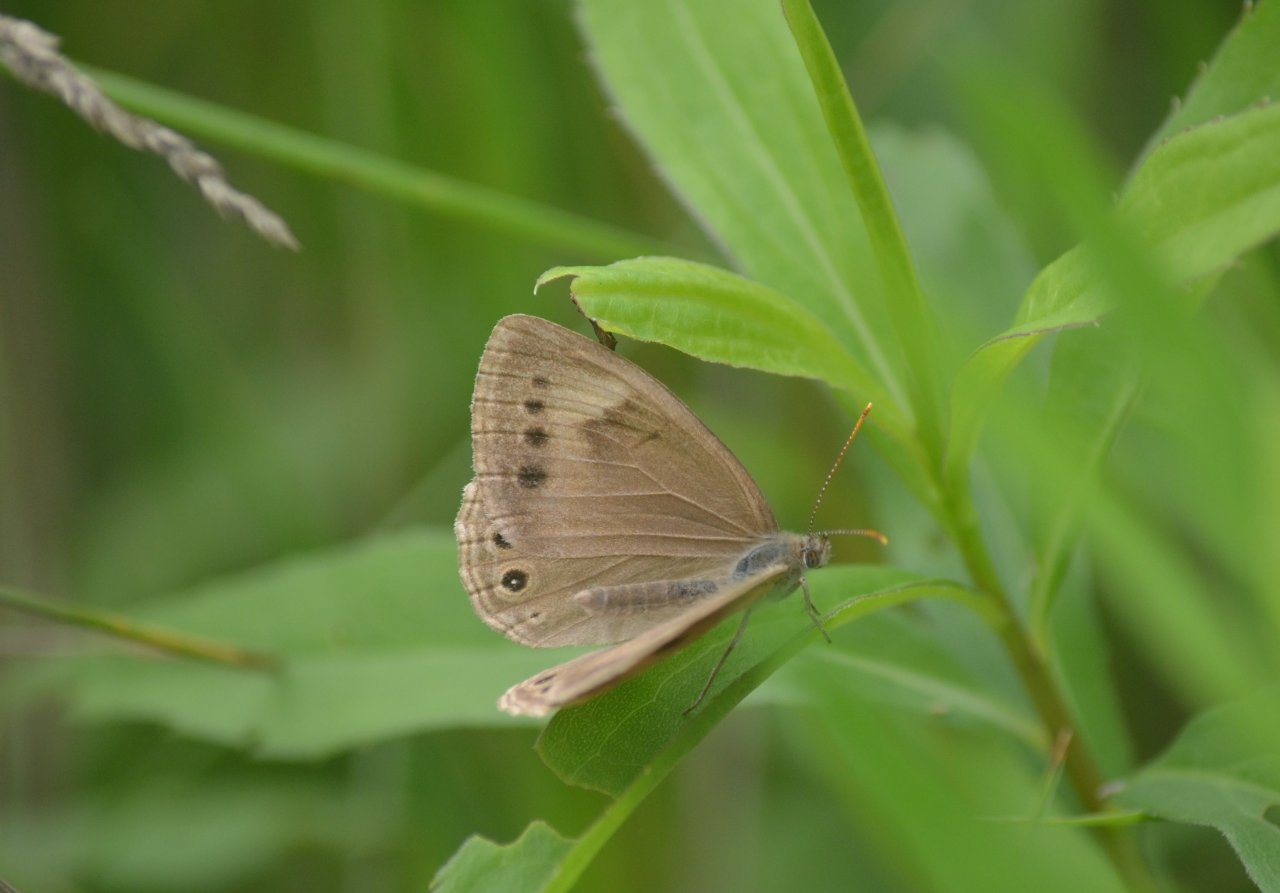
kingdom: Animalia
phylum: Arthropoda
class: Insecta
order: Lepidoptera
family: Nymphalidae
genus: Lethe
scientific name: Lethe eurydice
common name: Eyed Brown
